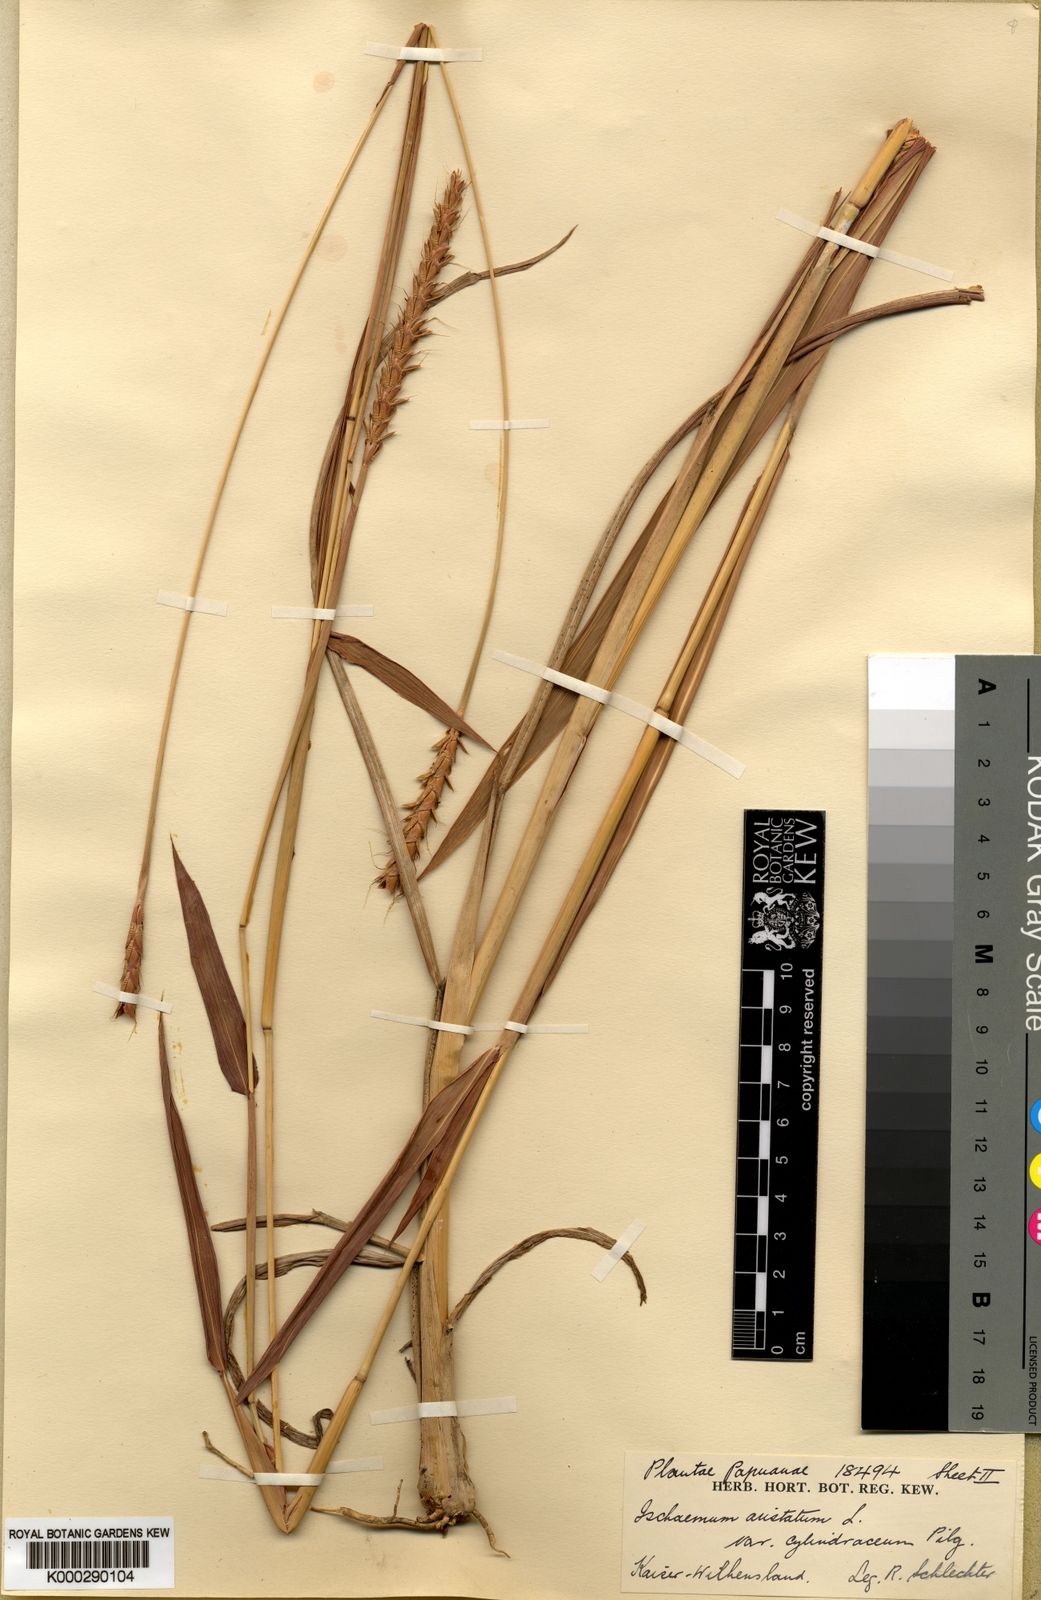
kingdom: Plantae
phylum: Tracheophyta
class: Liliopsida
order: Poales
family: Poaceae
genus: Ischaemum
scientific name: Ischaemum australe
